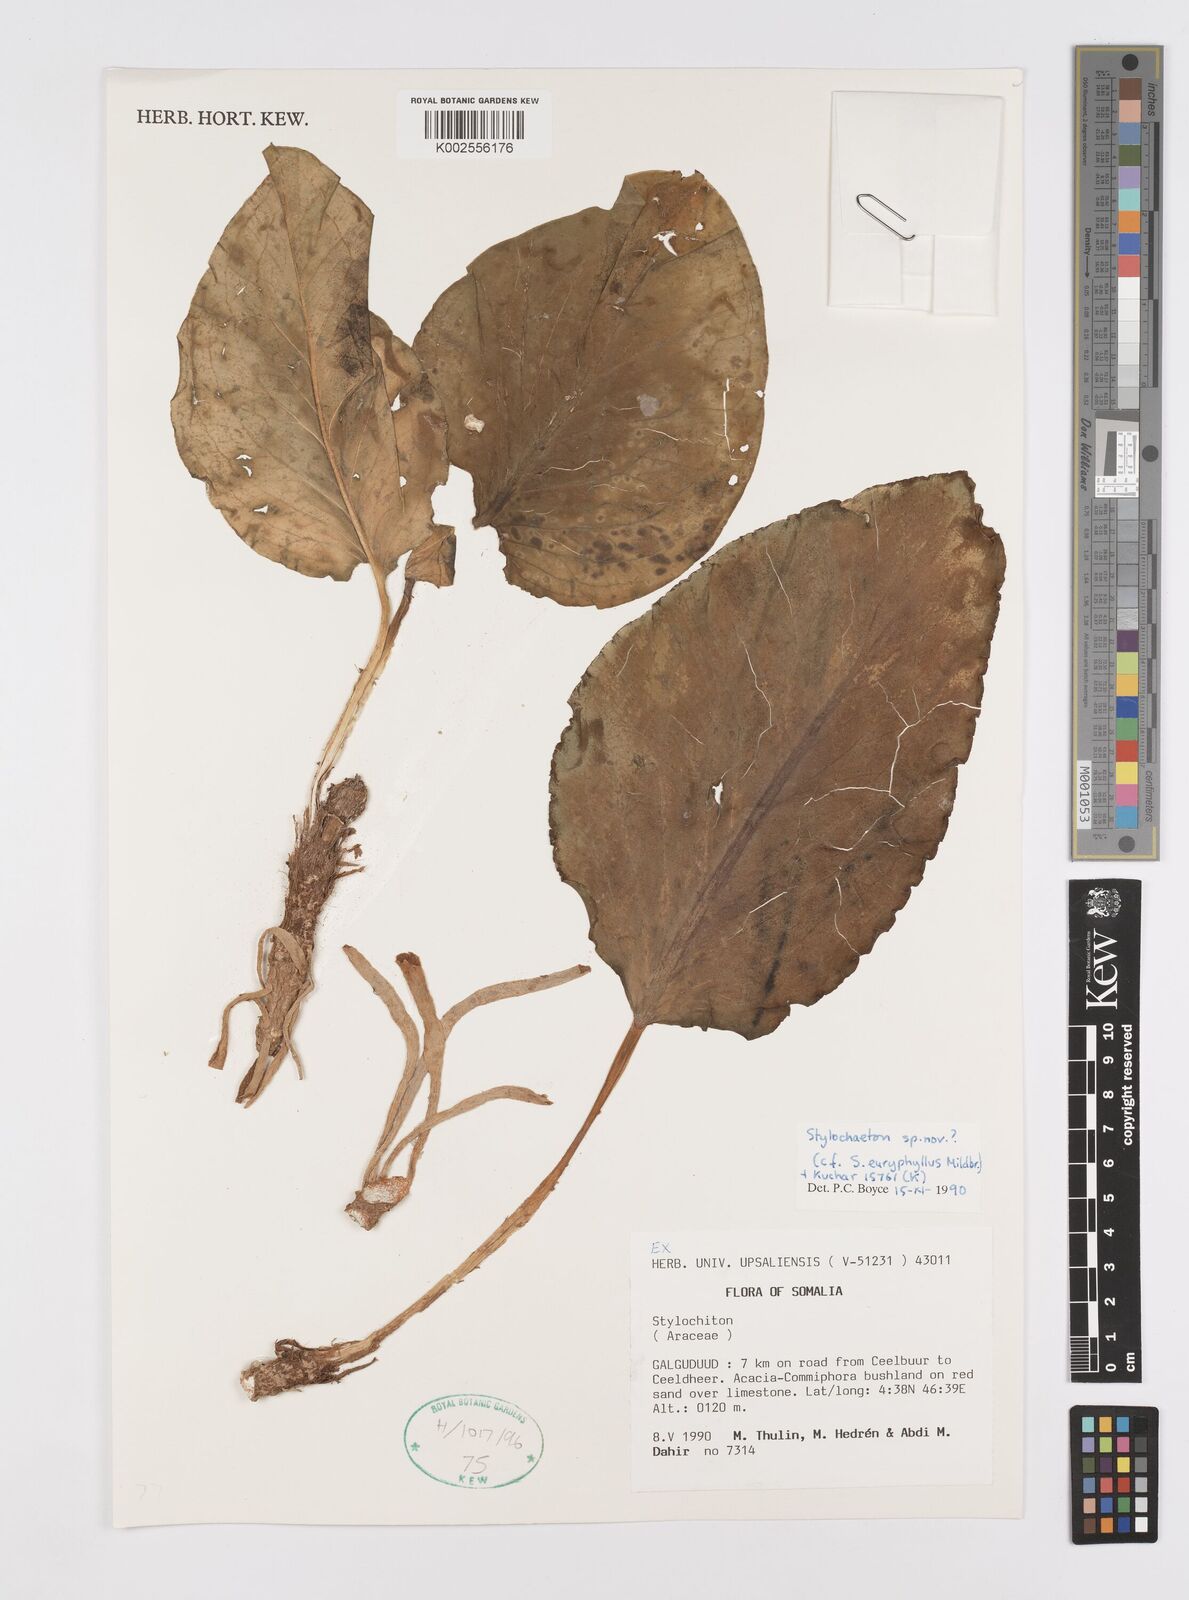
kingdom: Plantae
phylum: Tracheophyta
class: Liliopsida
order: Alismatales
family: Araceae
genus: Stylochaeton
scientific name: Stylochaeton
